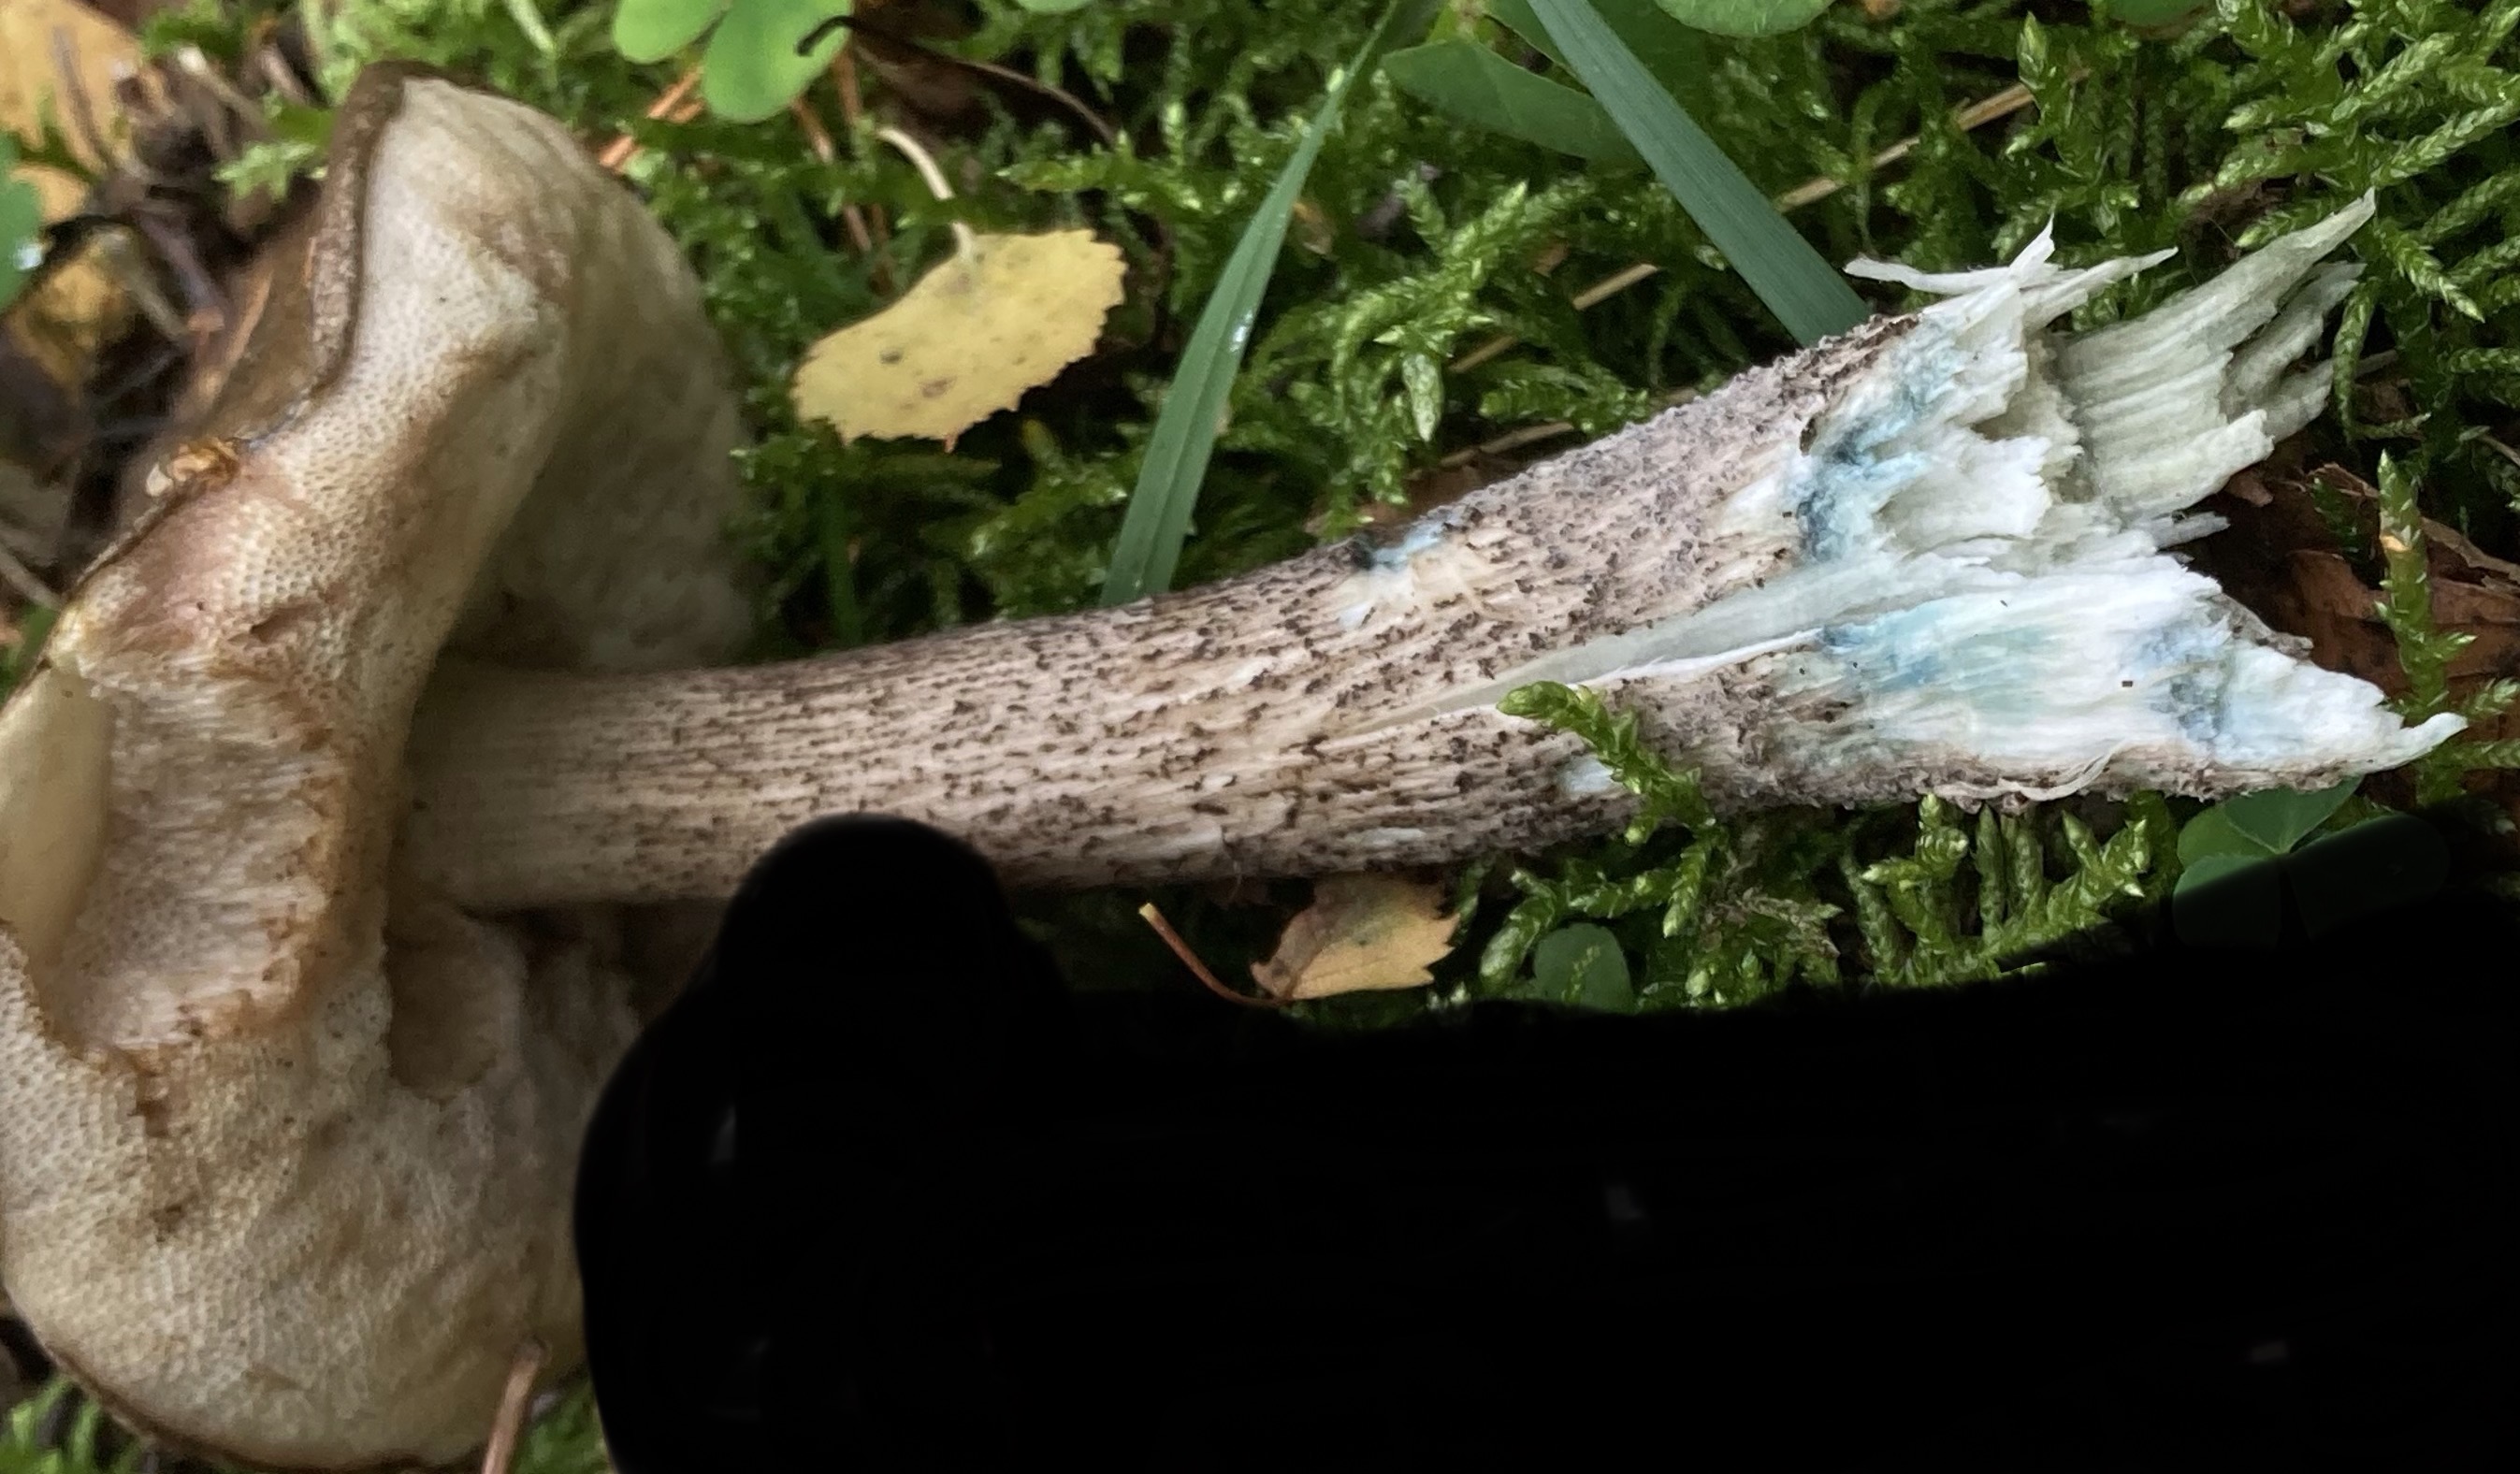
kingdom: Fungi
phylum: Basidiomycota
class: Agaricomycetes
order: Boletales
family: Boletaceae
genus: Leccinum
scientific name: Leccinum variicolor
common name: flammet skælrørhat
